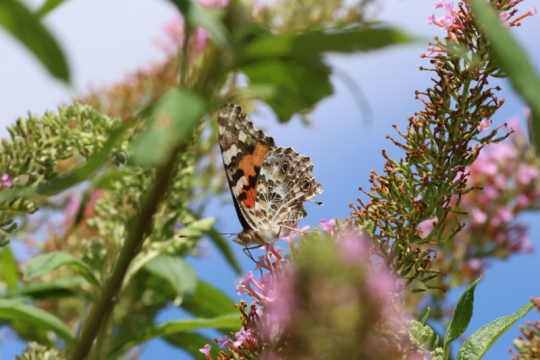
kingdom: Animalia
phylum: Arthropoda
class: Insecta
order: Lepidoptera
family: Nymphalidae
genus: Vanessa
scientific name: Vanessa cardui
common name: Painted Lady
